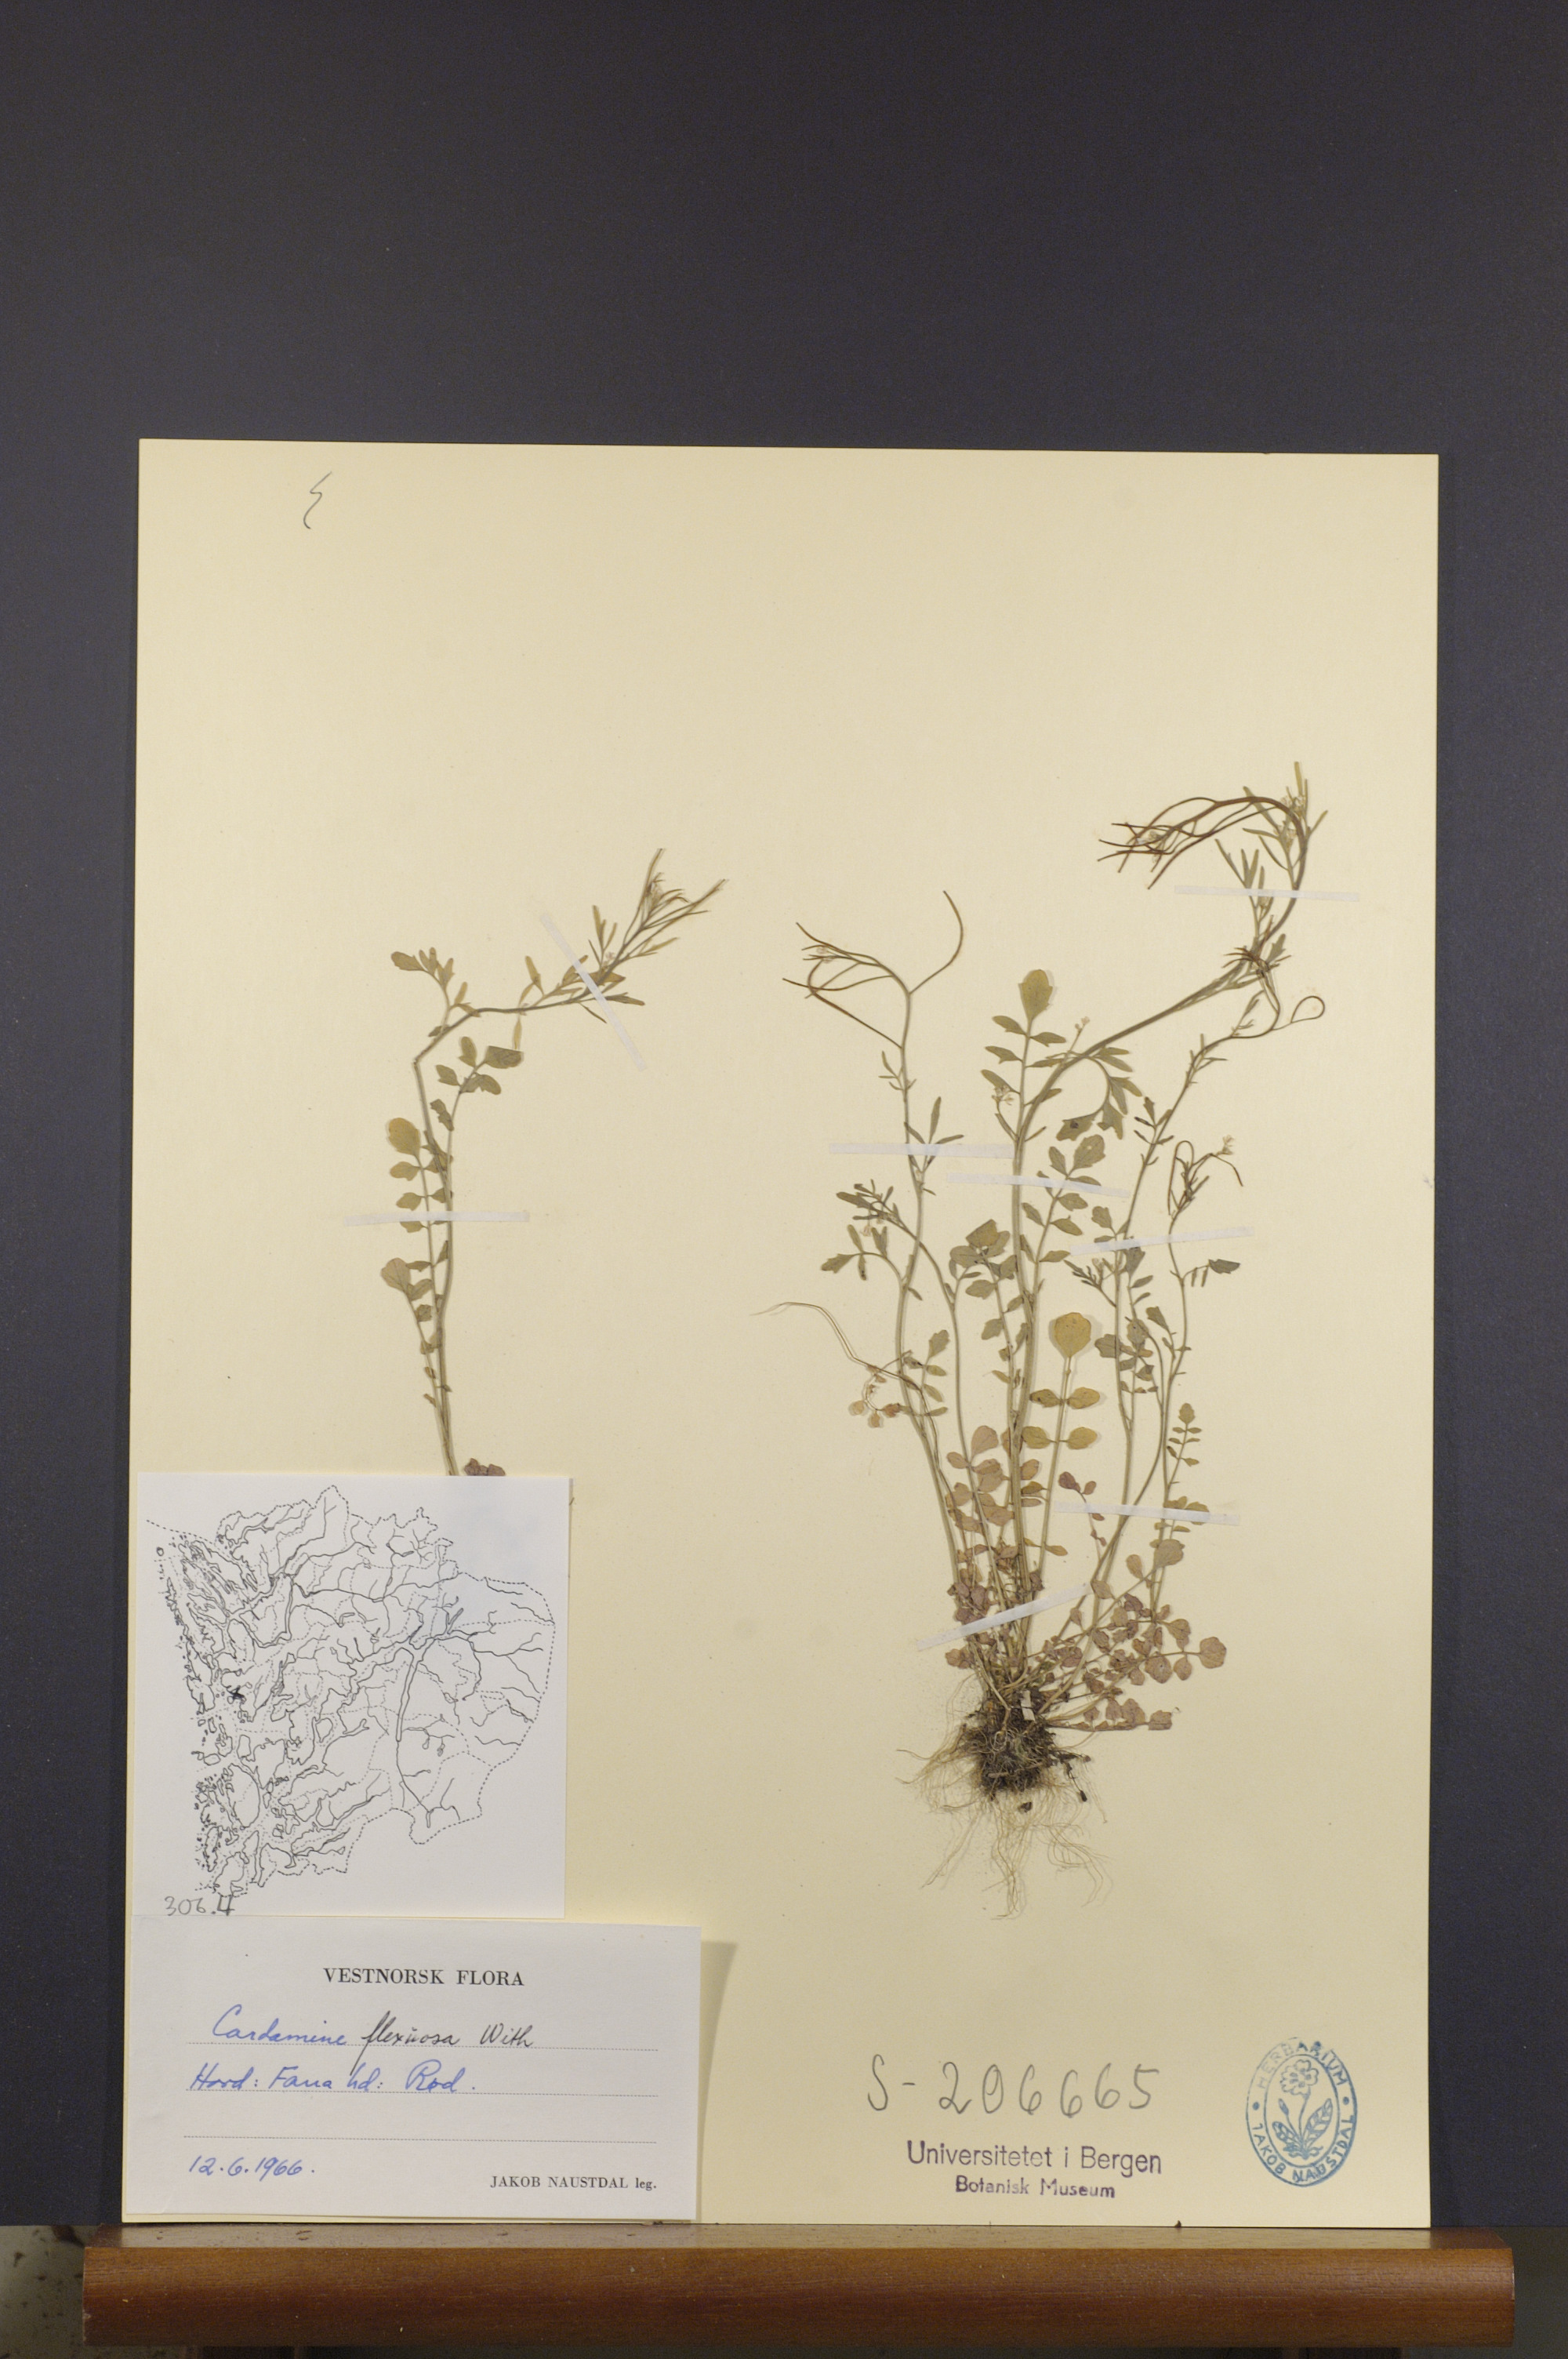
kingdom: Plantae
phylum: Tracheophyta
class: Magnoliopsida
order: Brassicales
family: Brassicaceae
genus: Cardamine
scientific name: Cardamine flexuosa
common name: Woodland bittercress
